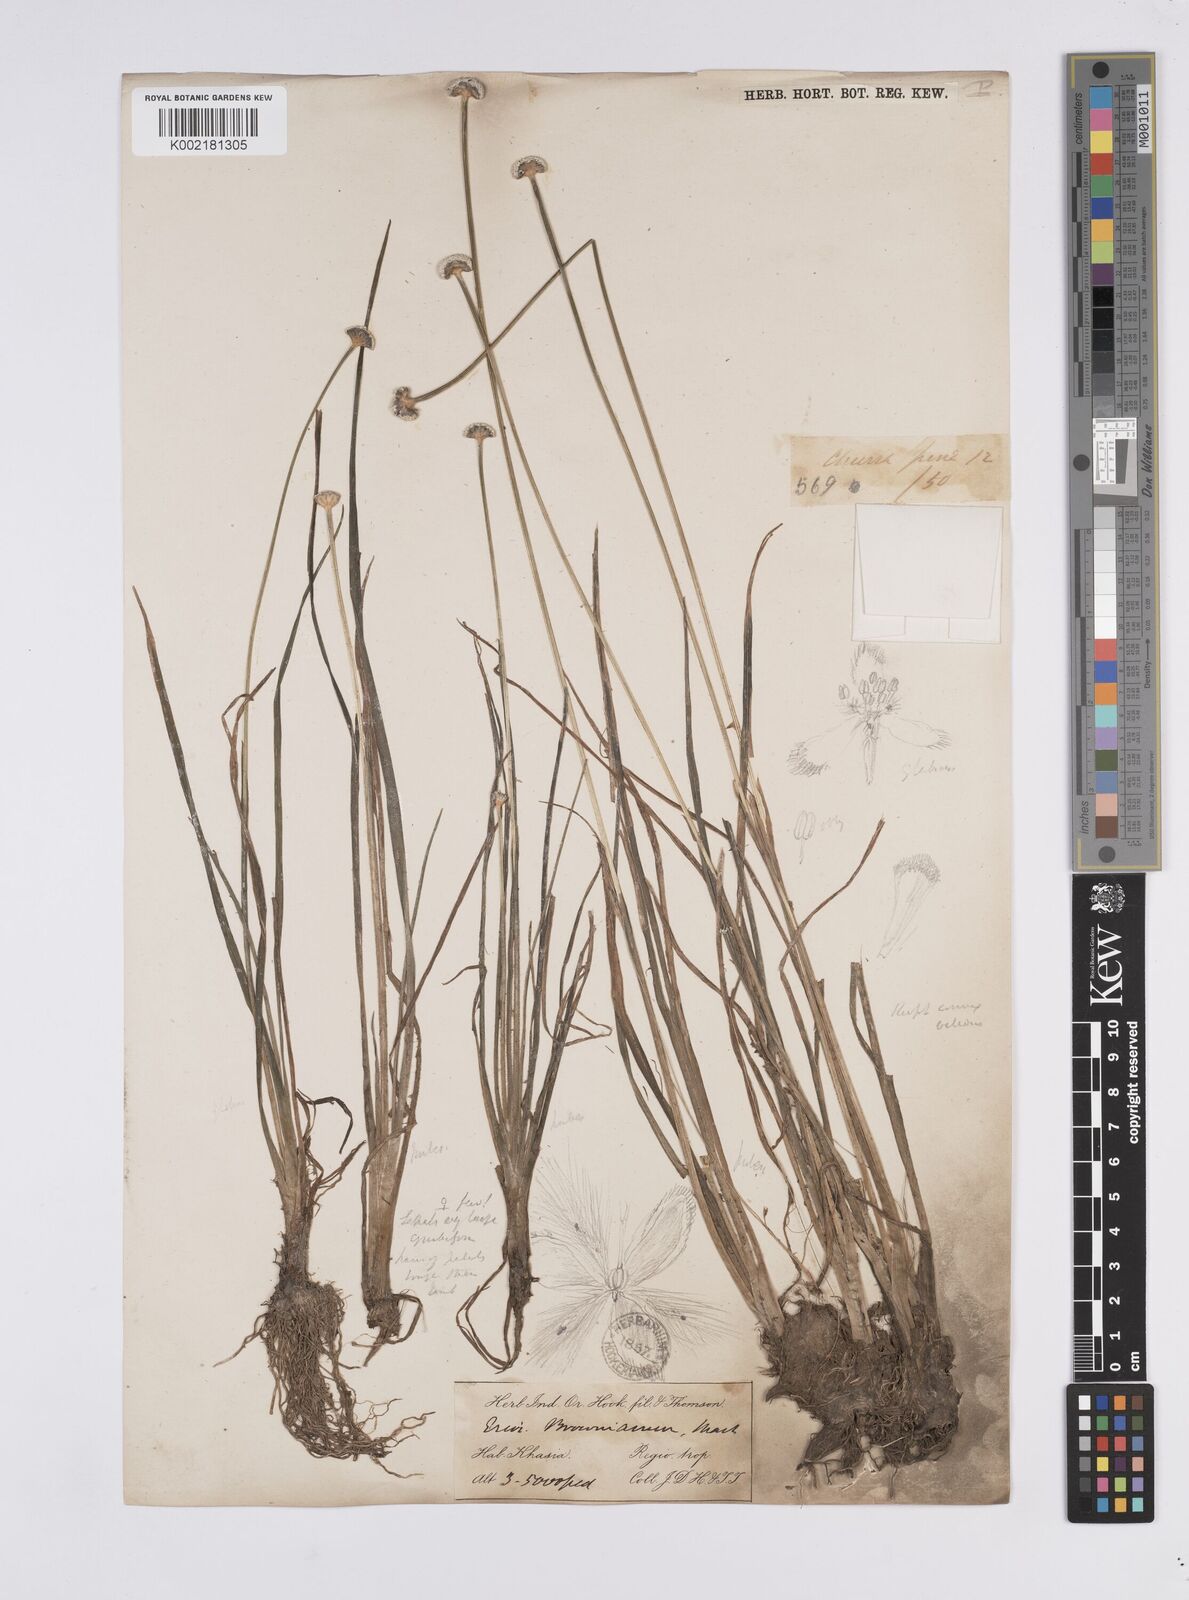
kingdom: Plantae
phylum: Tracheophyta
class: Liliopsida
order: Poales
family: Eriocaulaceae
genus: Eriocaulon
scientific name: Eriocaulon brownianum
